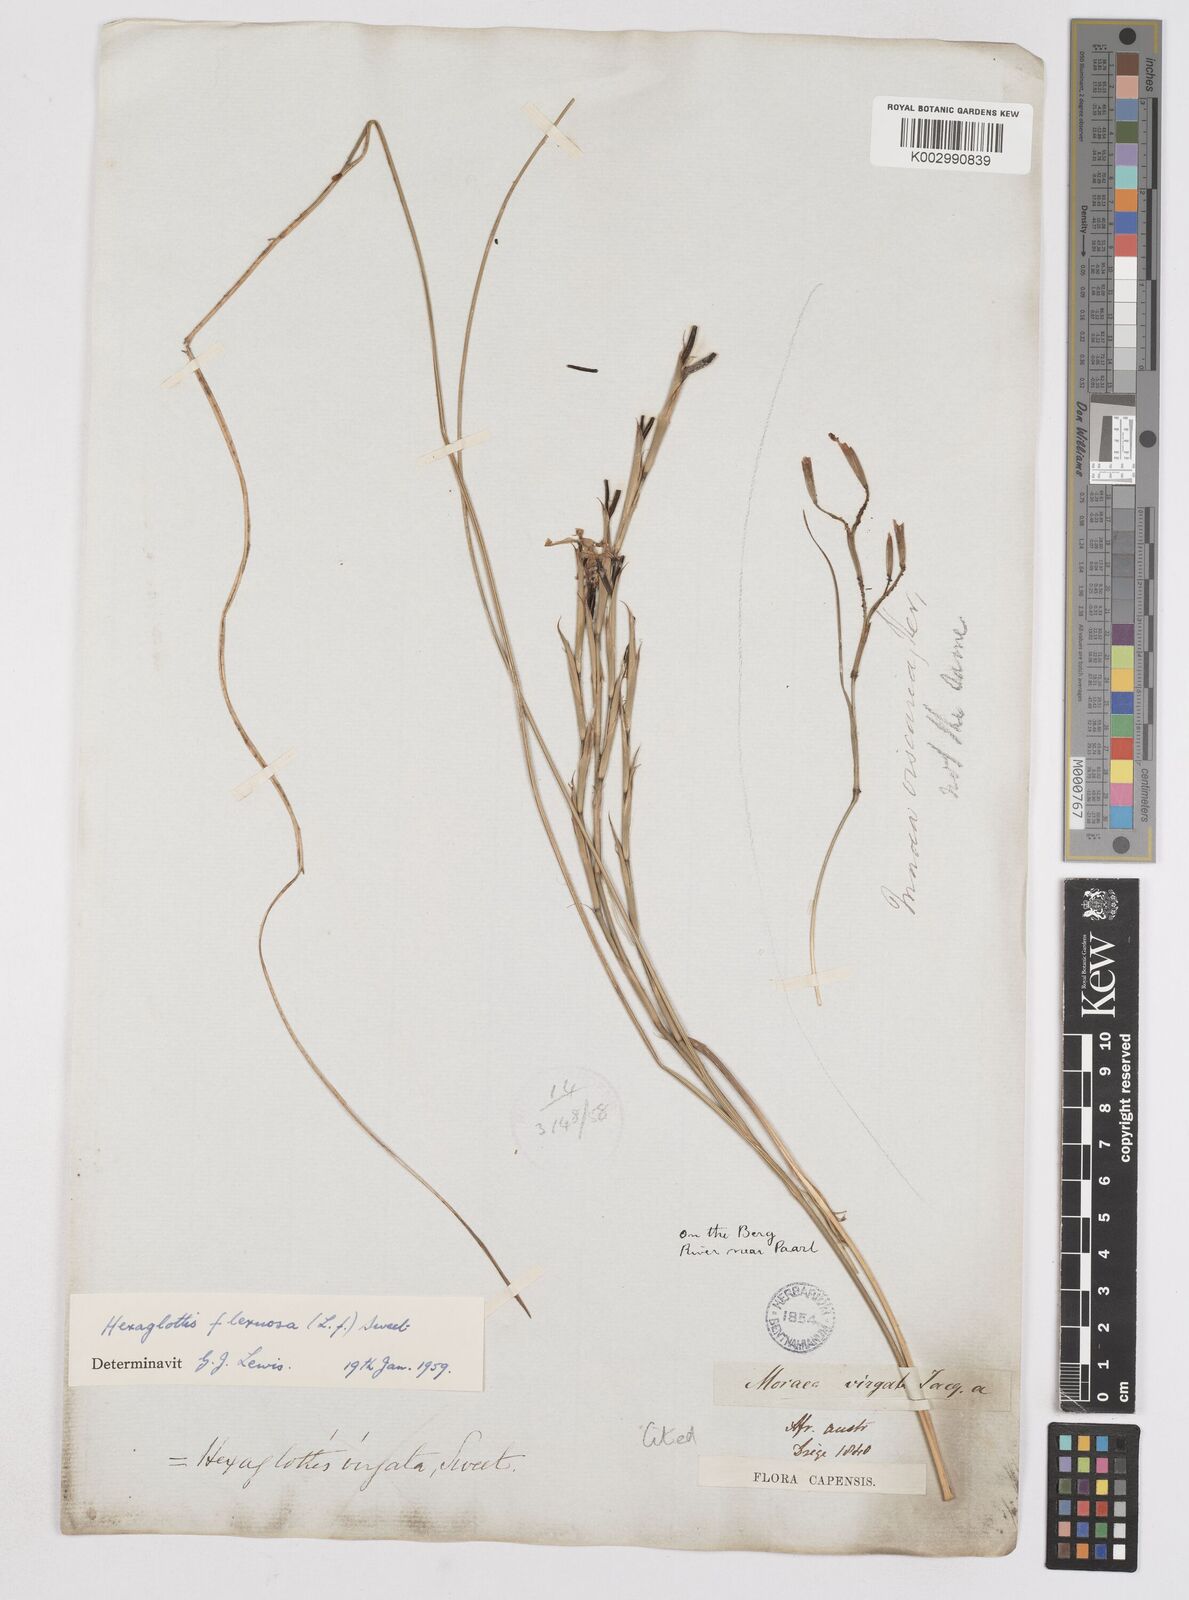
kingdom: Plantae
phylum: Tracheophyta
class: Liliopsida
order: Asparagales
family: Iridaceae
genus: Moraea
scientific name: Moraea lewisiae
